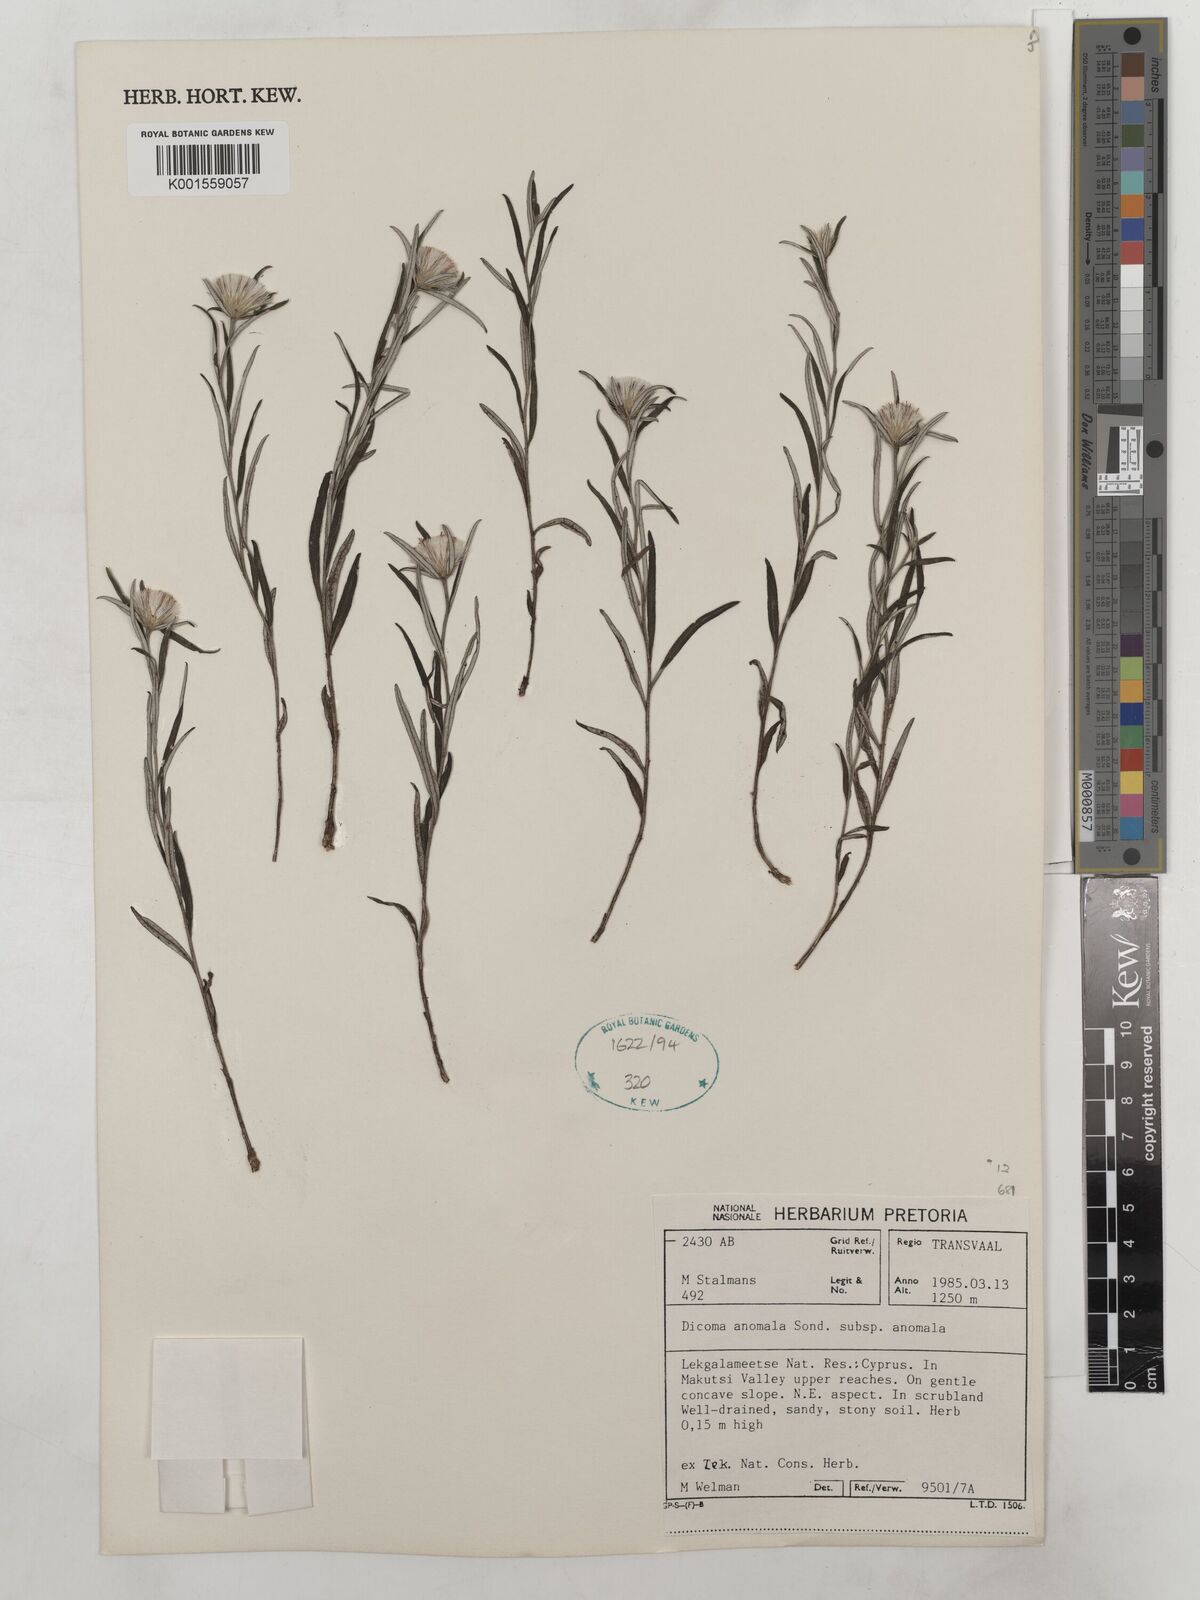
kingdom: Plantae
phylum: Tracheophyta
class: Magnoliopsida
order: Asterales
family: Asteraceae
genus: Dicoma
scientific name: Dicoma anomala
